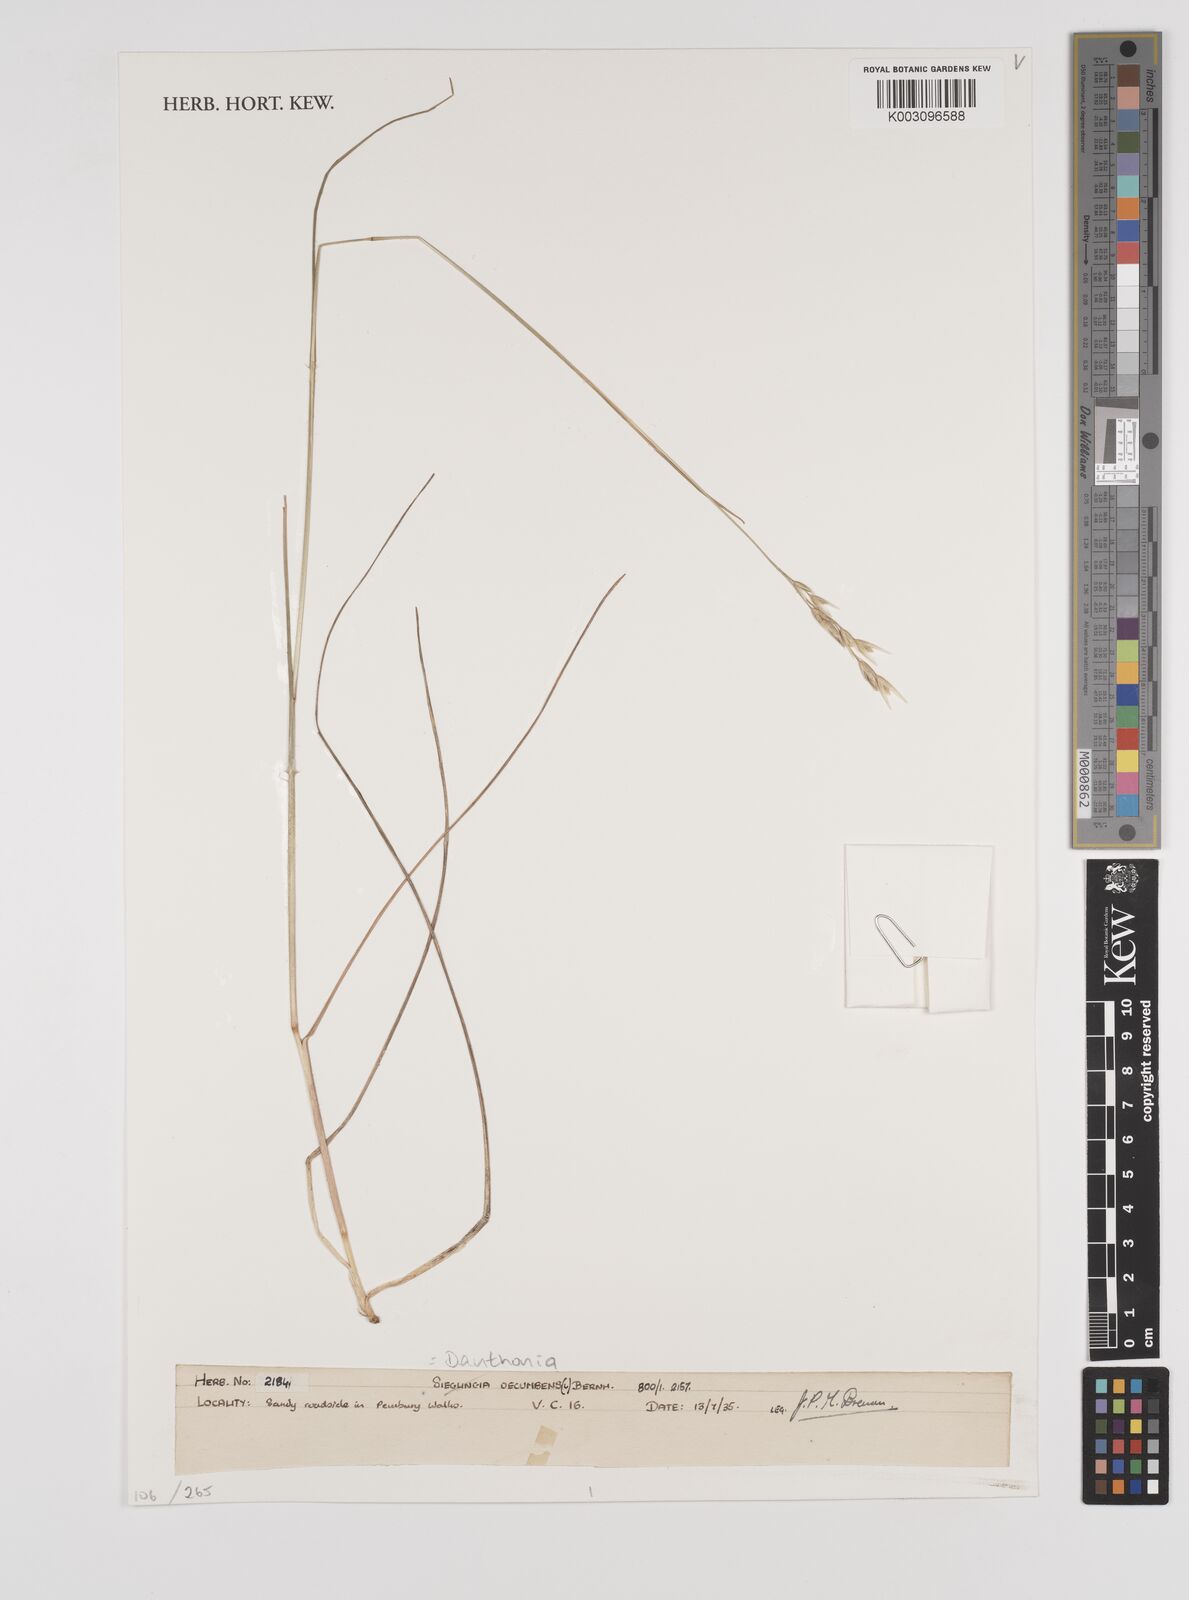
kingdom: Plantae
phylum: Tracheophyta
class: Liliopsida
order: Poales
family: Poaceae
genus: Danthonia
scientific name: Danthonia decumbens
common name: Common heathgrass
